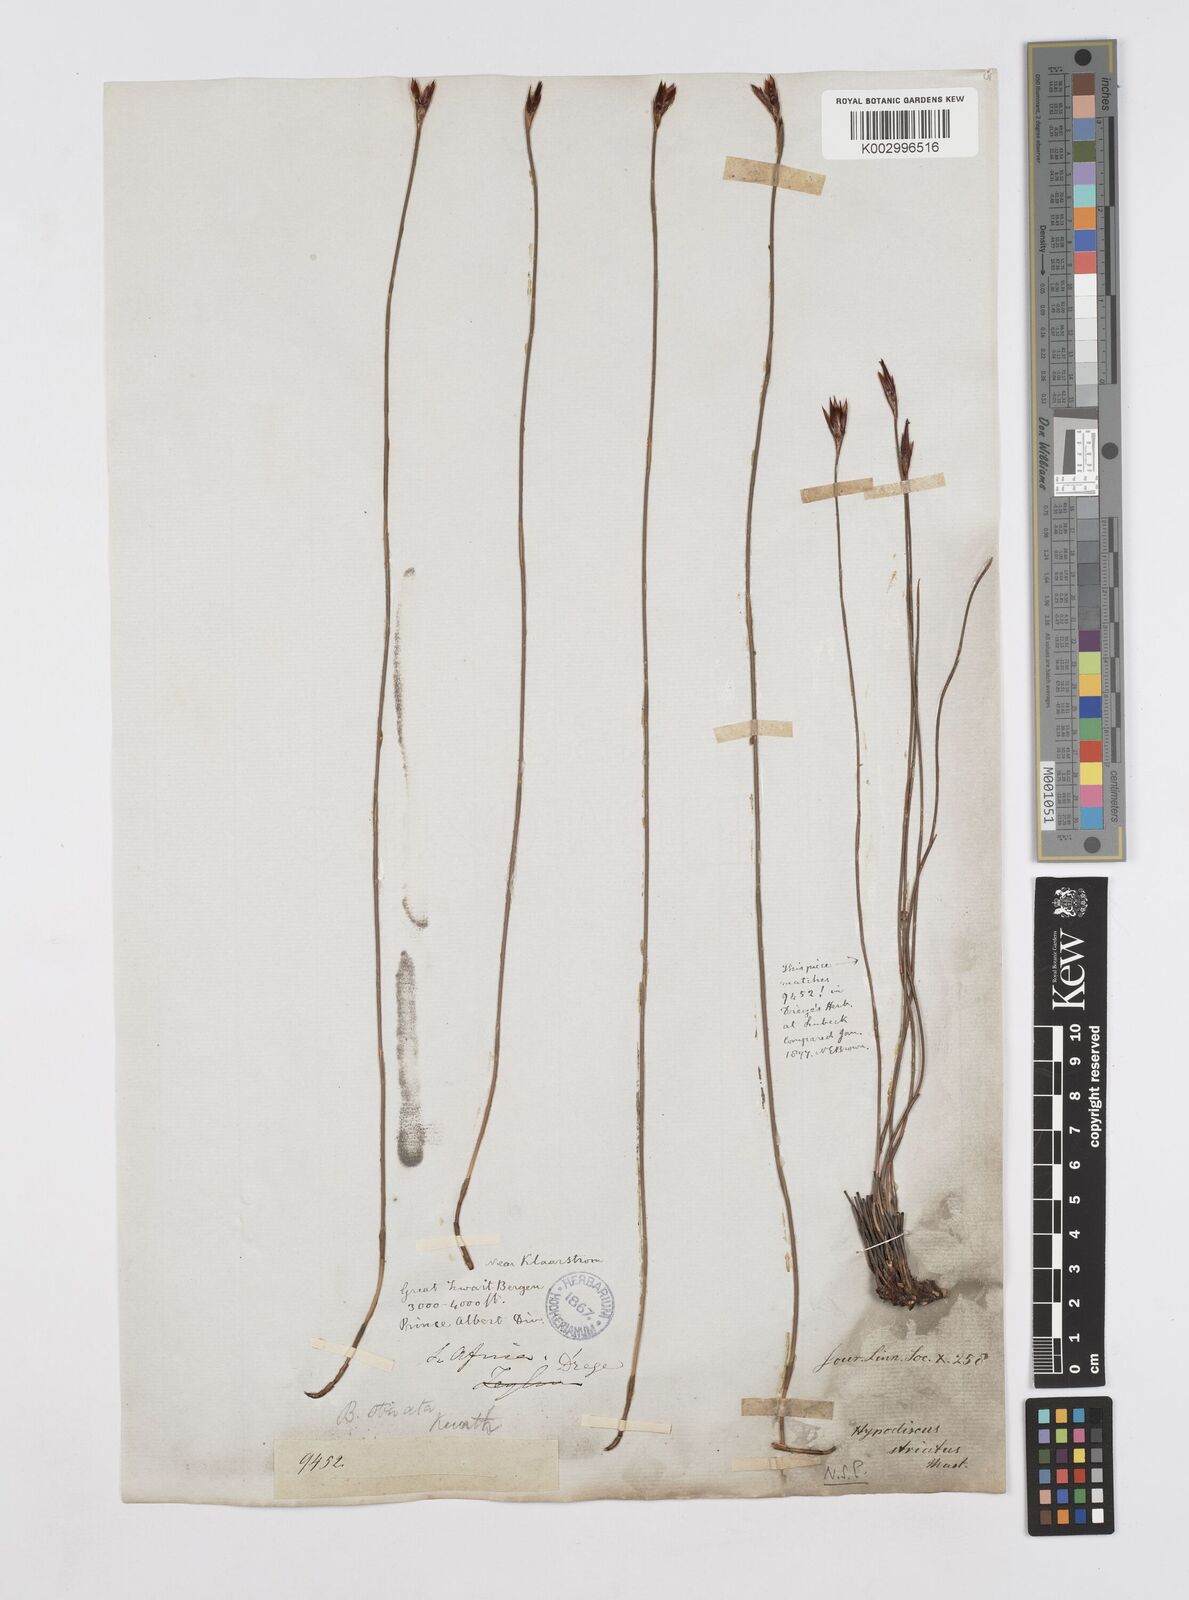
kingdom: Plantae
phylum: Tracheophyta
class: Liliopsida
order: Poales
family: Restionaceae
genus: Hypodiscus
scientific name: Hypodiscus striatus
